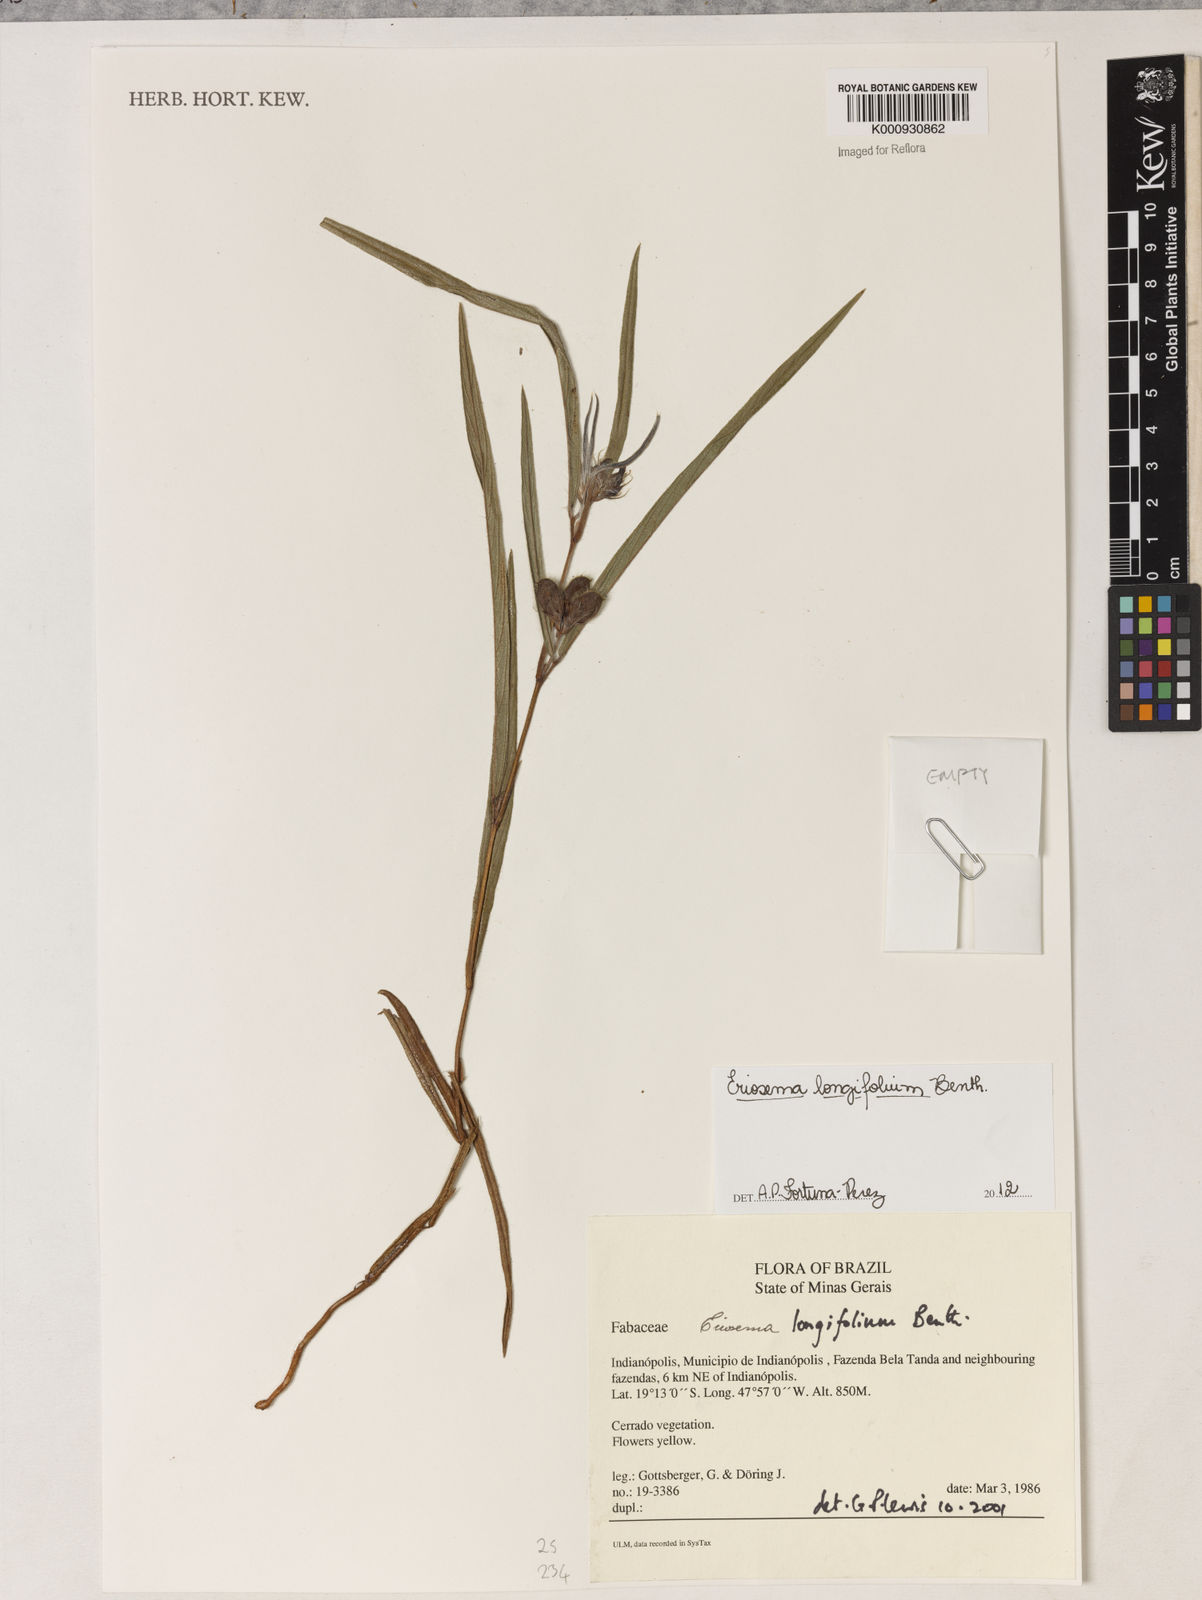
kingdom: Plantae
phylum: Tracheophyta
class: Magnoliopsida
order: Fabales
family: Fabaceae
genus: Eriosema
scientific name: Eriosema longifolium
